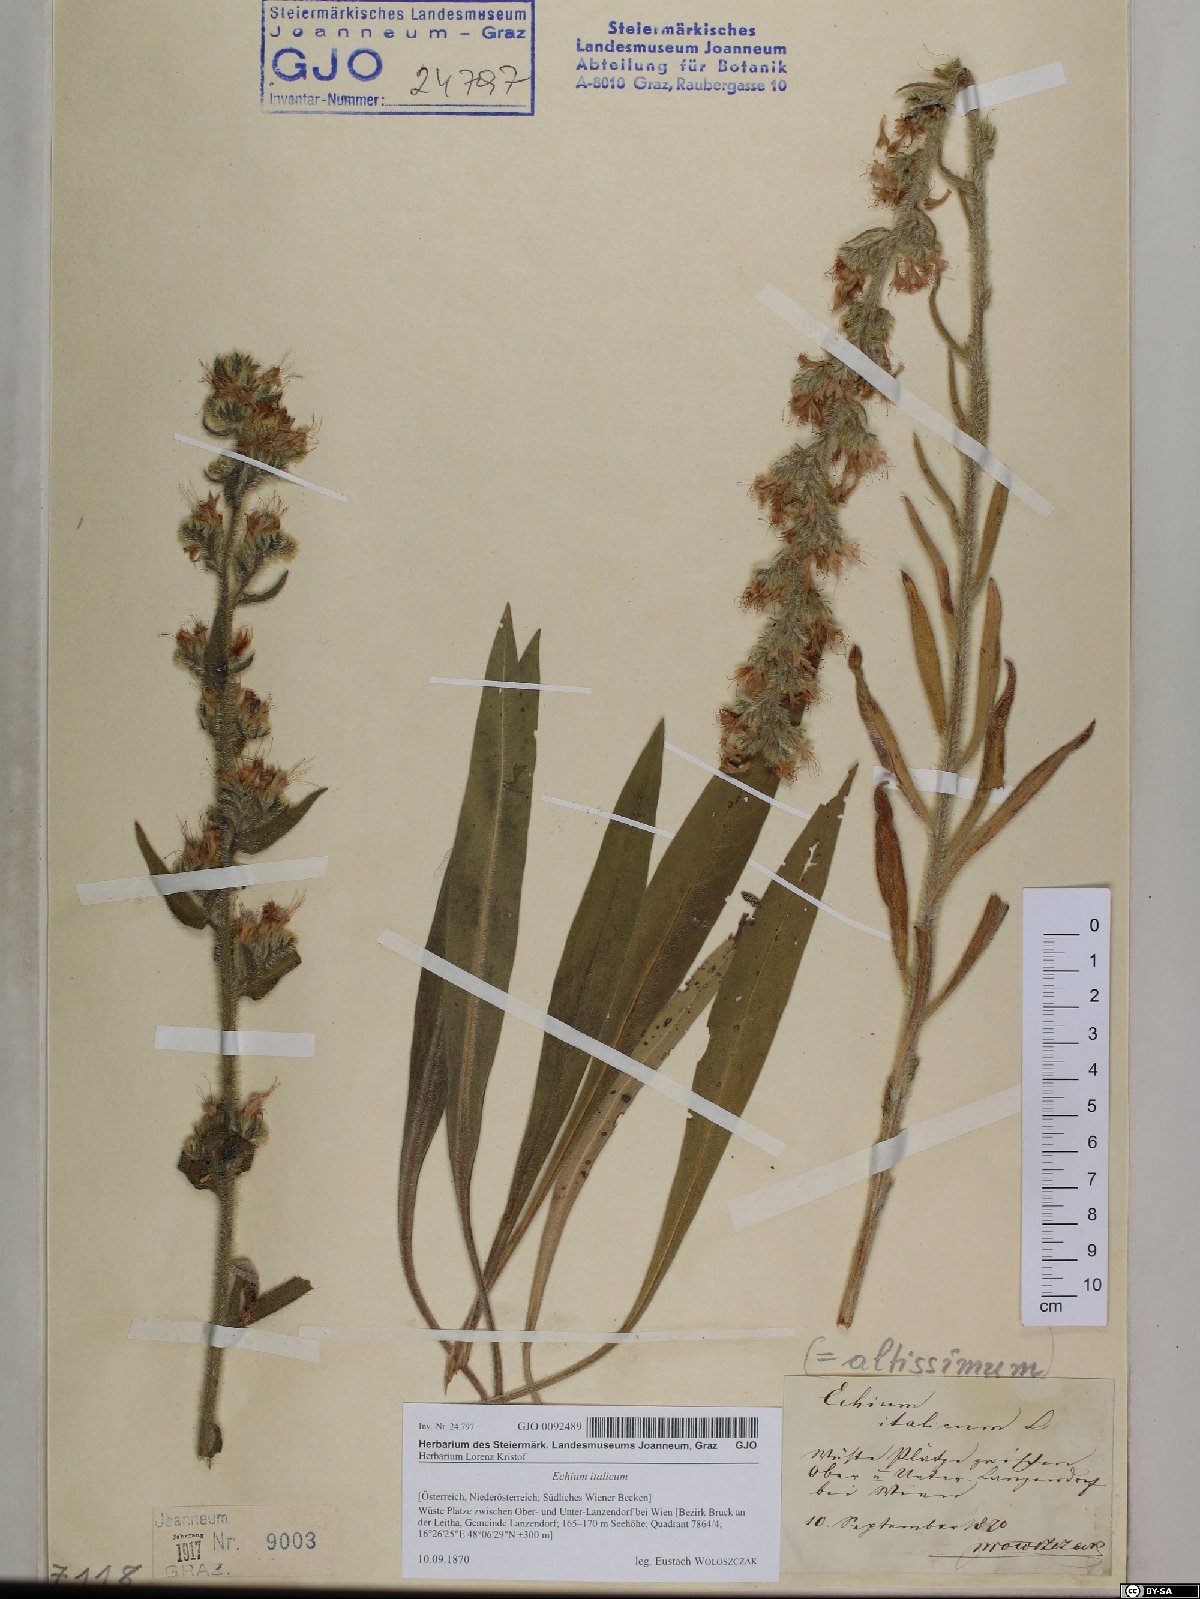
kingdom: Plantae
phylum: Tracheophyta
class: Magnoliopsida
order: Boraginales
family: Boraginaceae
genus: Echium
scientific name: Echium italicum
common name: Italian viper's bugloss
